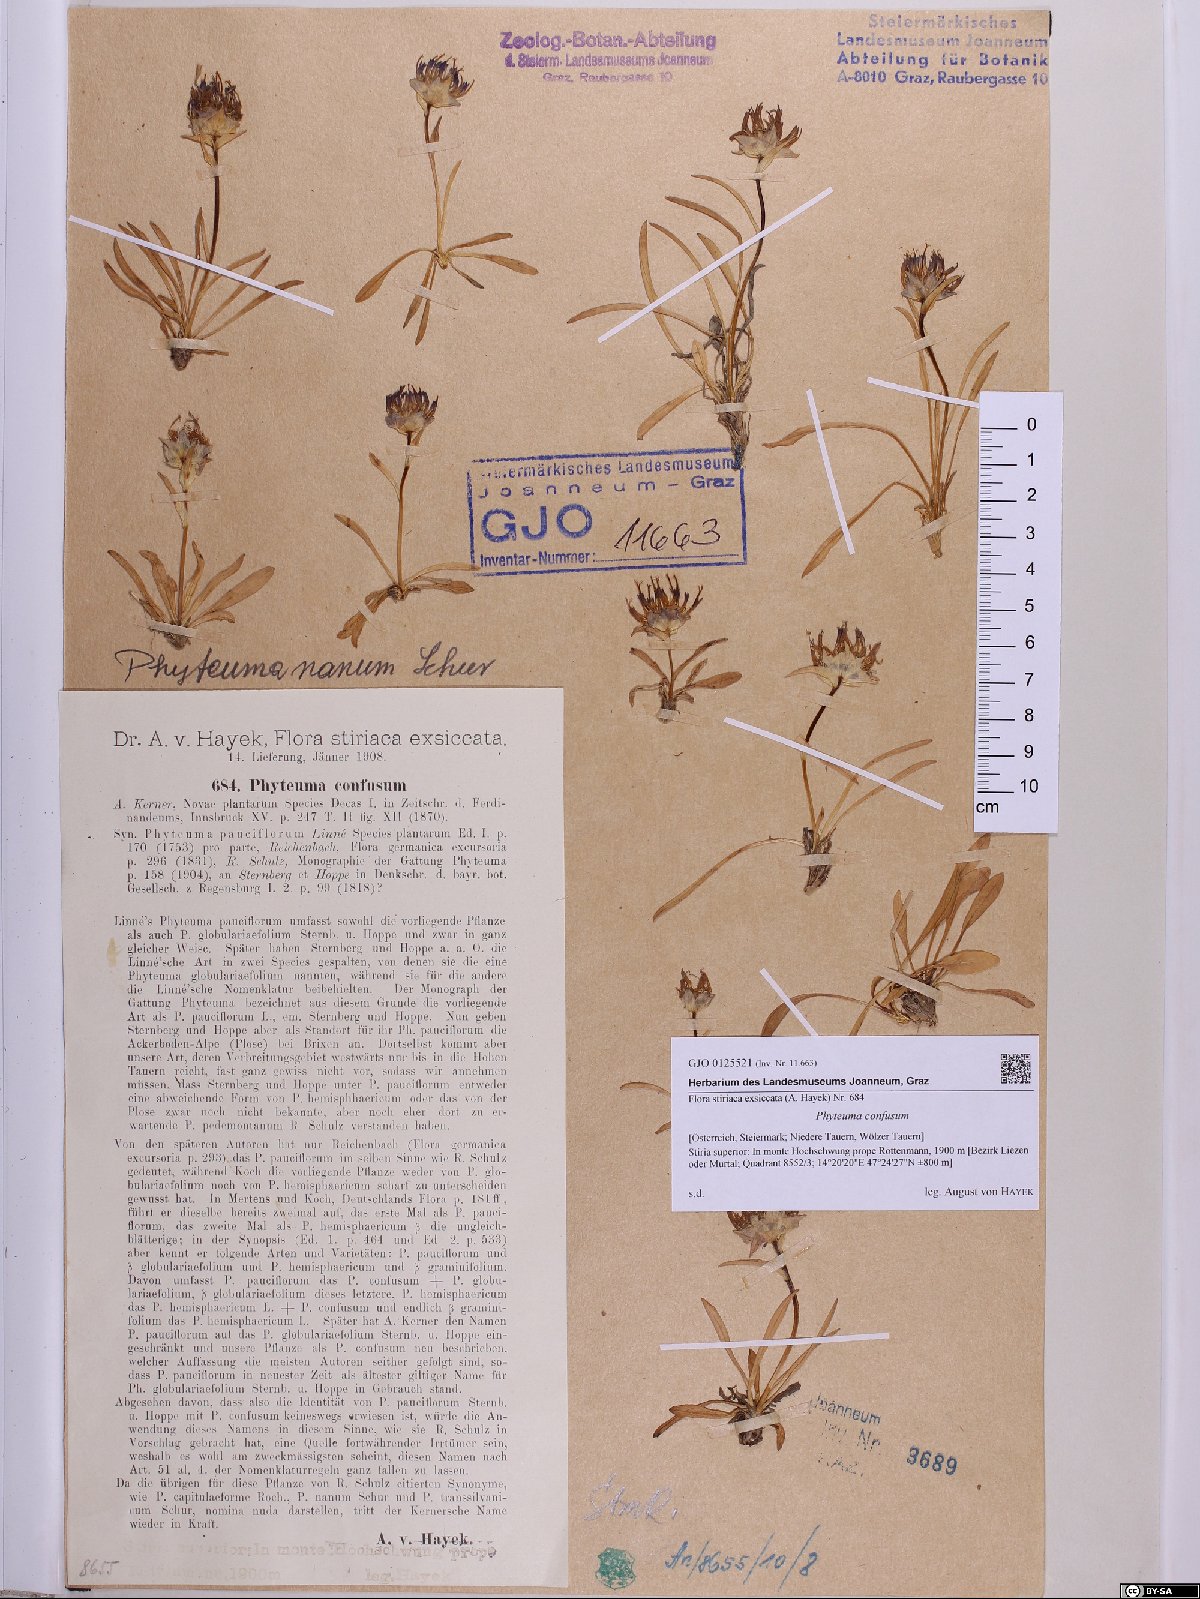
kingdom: Plantae
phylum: Tracheophyta
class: Magnoliopsida
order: Asterales
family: Campanulaceae
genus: Phyteuma
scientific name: Phyteuma confusum
